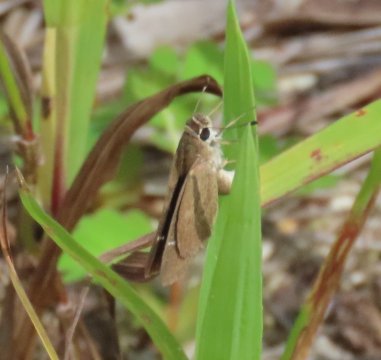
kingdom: Animalia
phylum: Arthropoda
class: Insecta
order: Lepidoptera
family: Hesperiidae
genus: Lerodea
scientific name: Lerodea eufala
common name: Eufala Skipper
